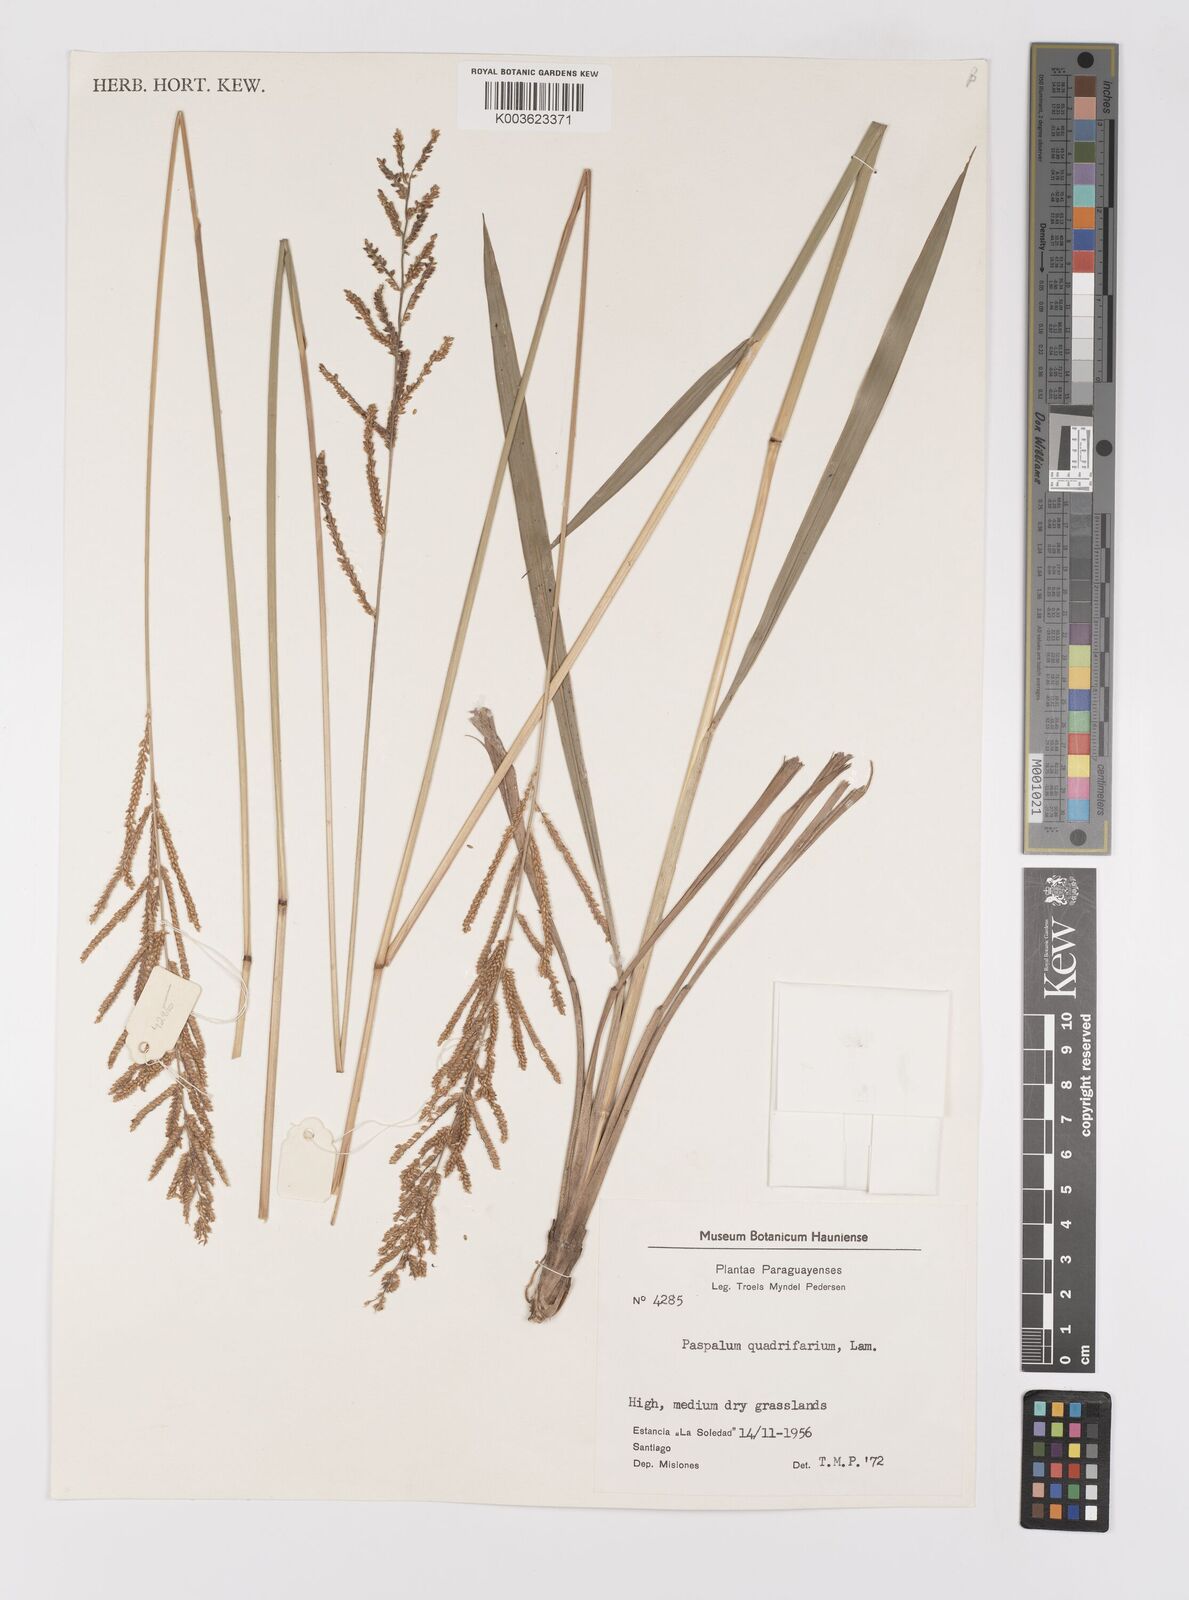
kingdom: Plantae
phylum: Tracheophyta
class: Liliopsida
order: Poales
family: Poaceae
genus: Paspalum
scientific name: Paspalum quadrifarium
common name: Tussock paspalum
